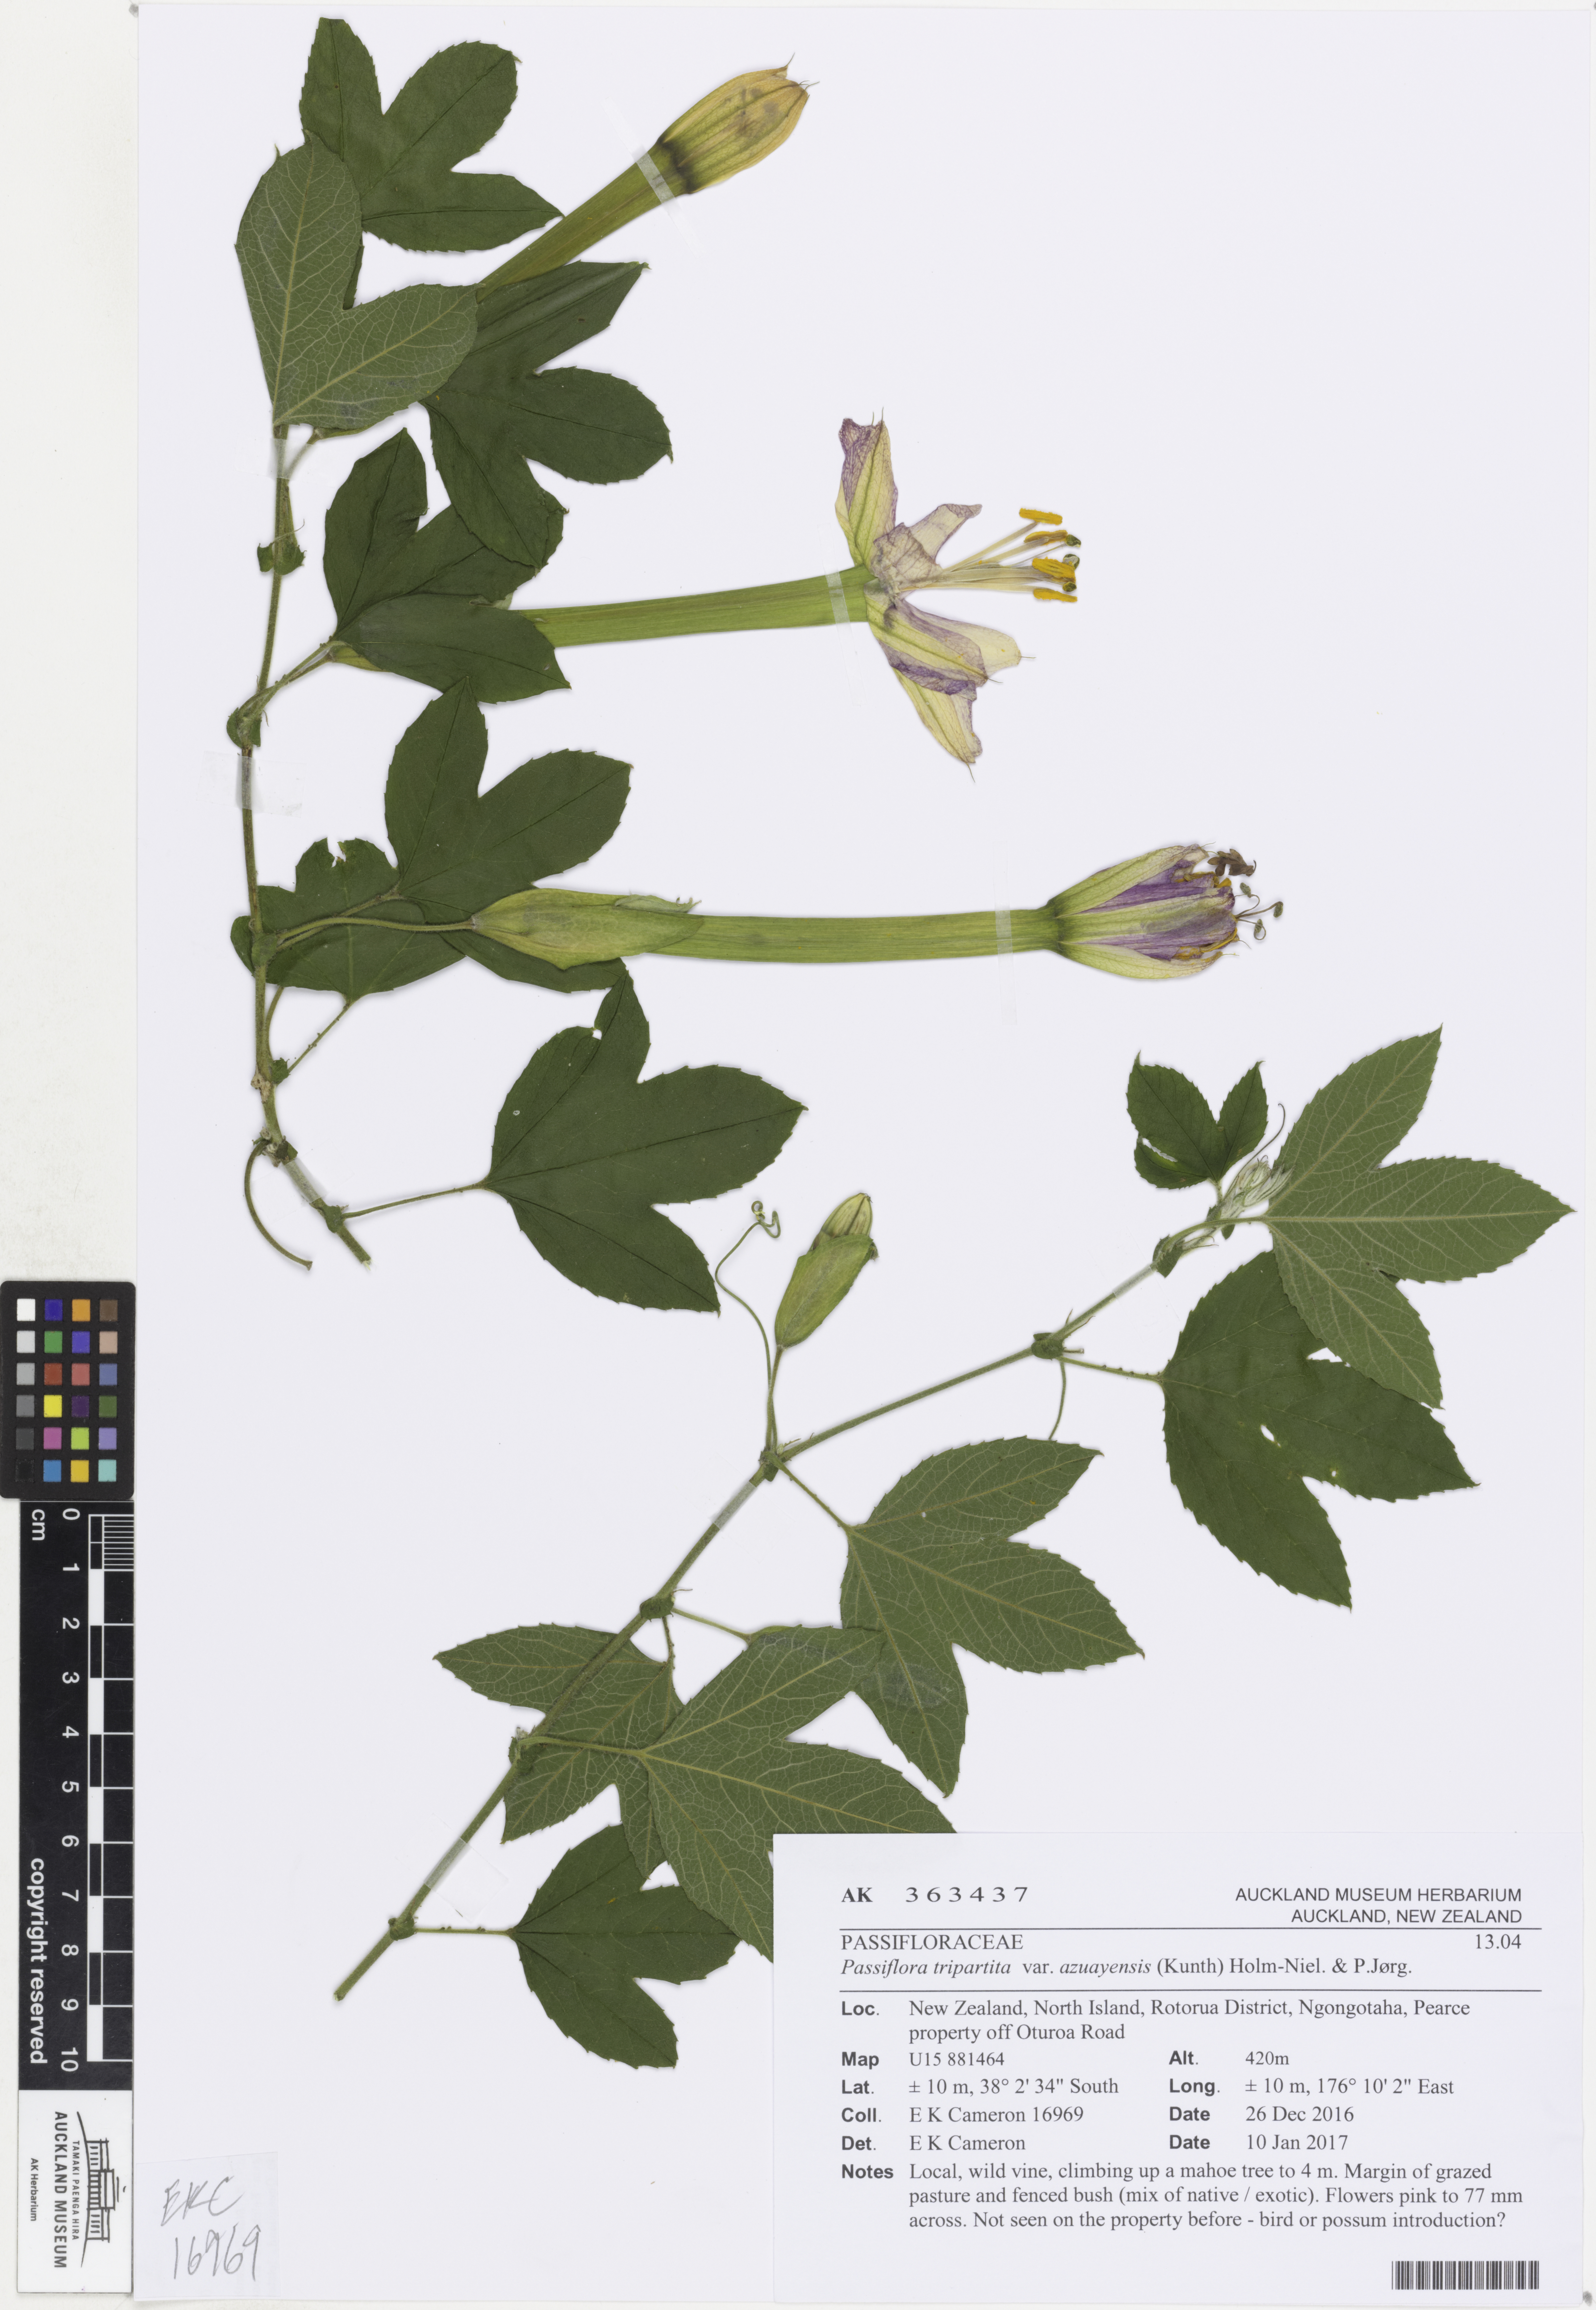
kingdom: Plantae
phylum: Tracheophyta
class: Magnoliopsida
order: Malpighiales
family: Passifloraceae
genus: Passiflora
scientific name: Passiflora tripartita
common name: Banana poka
